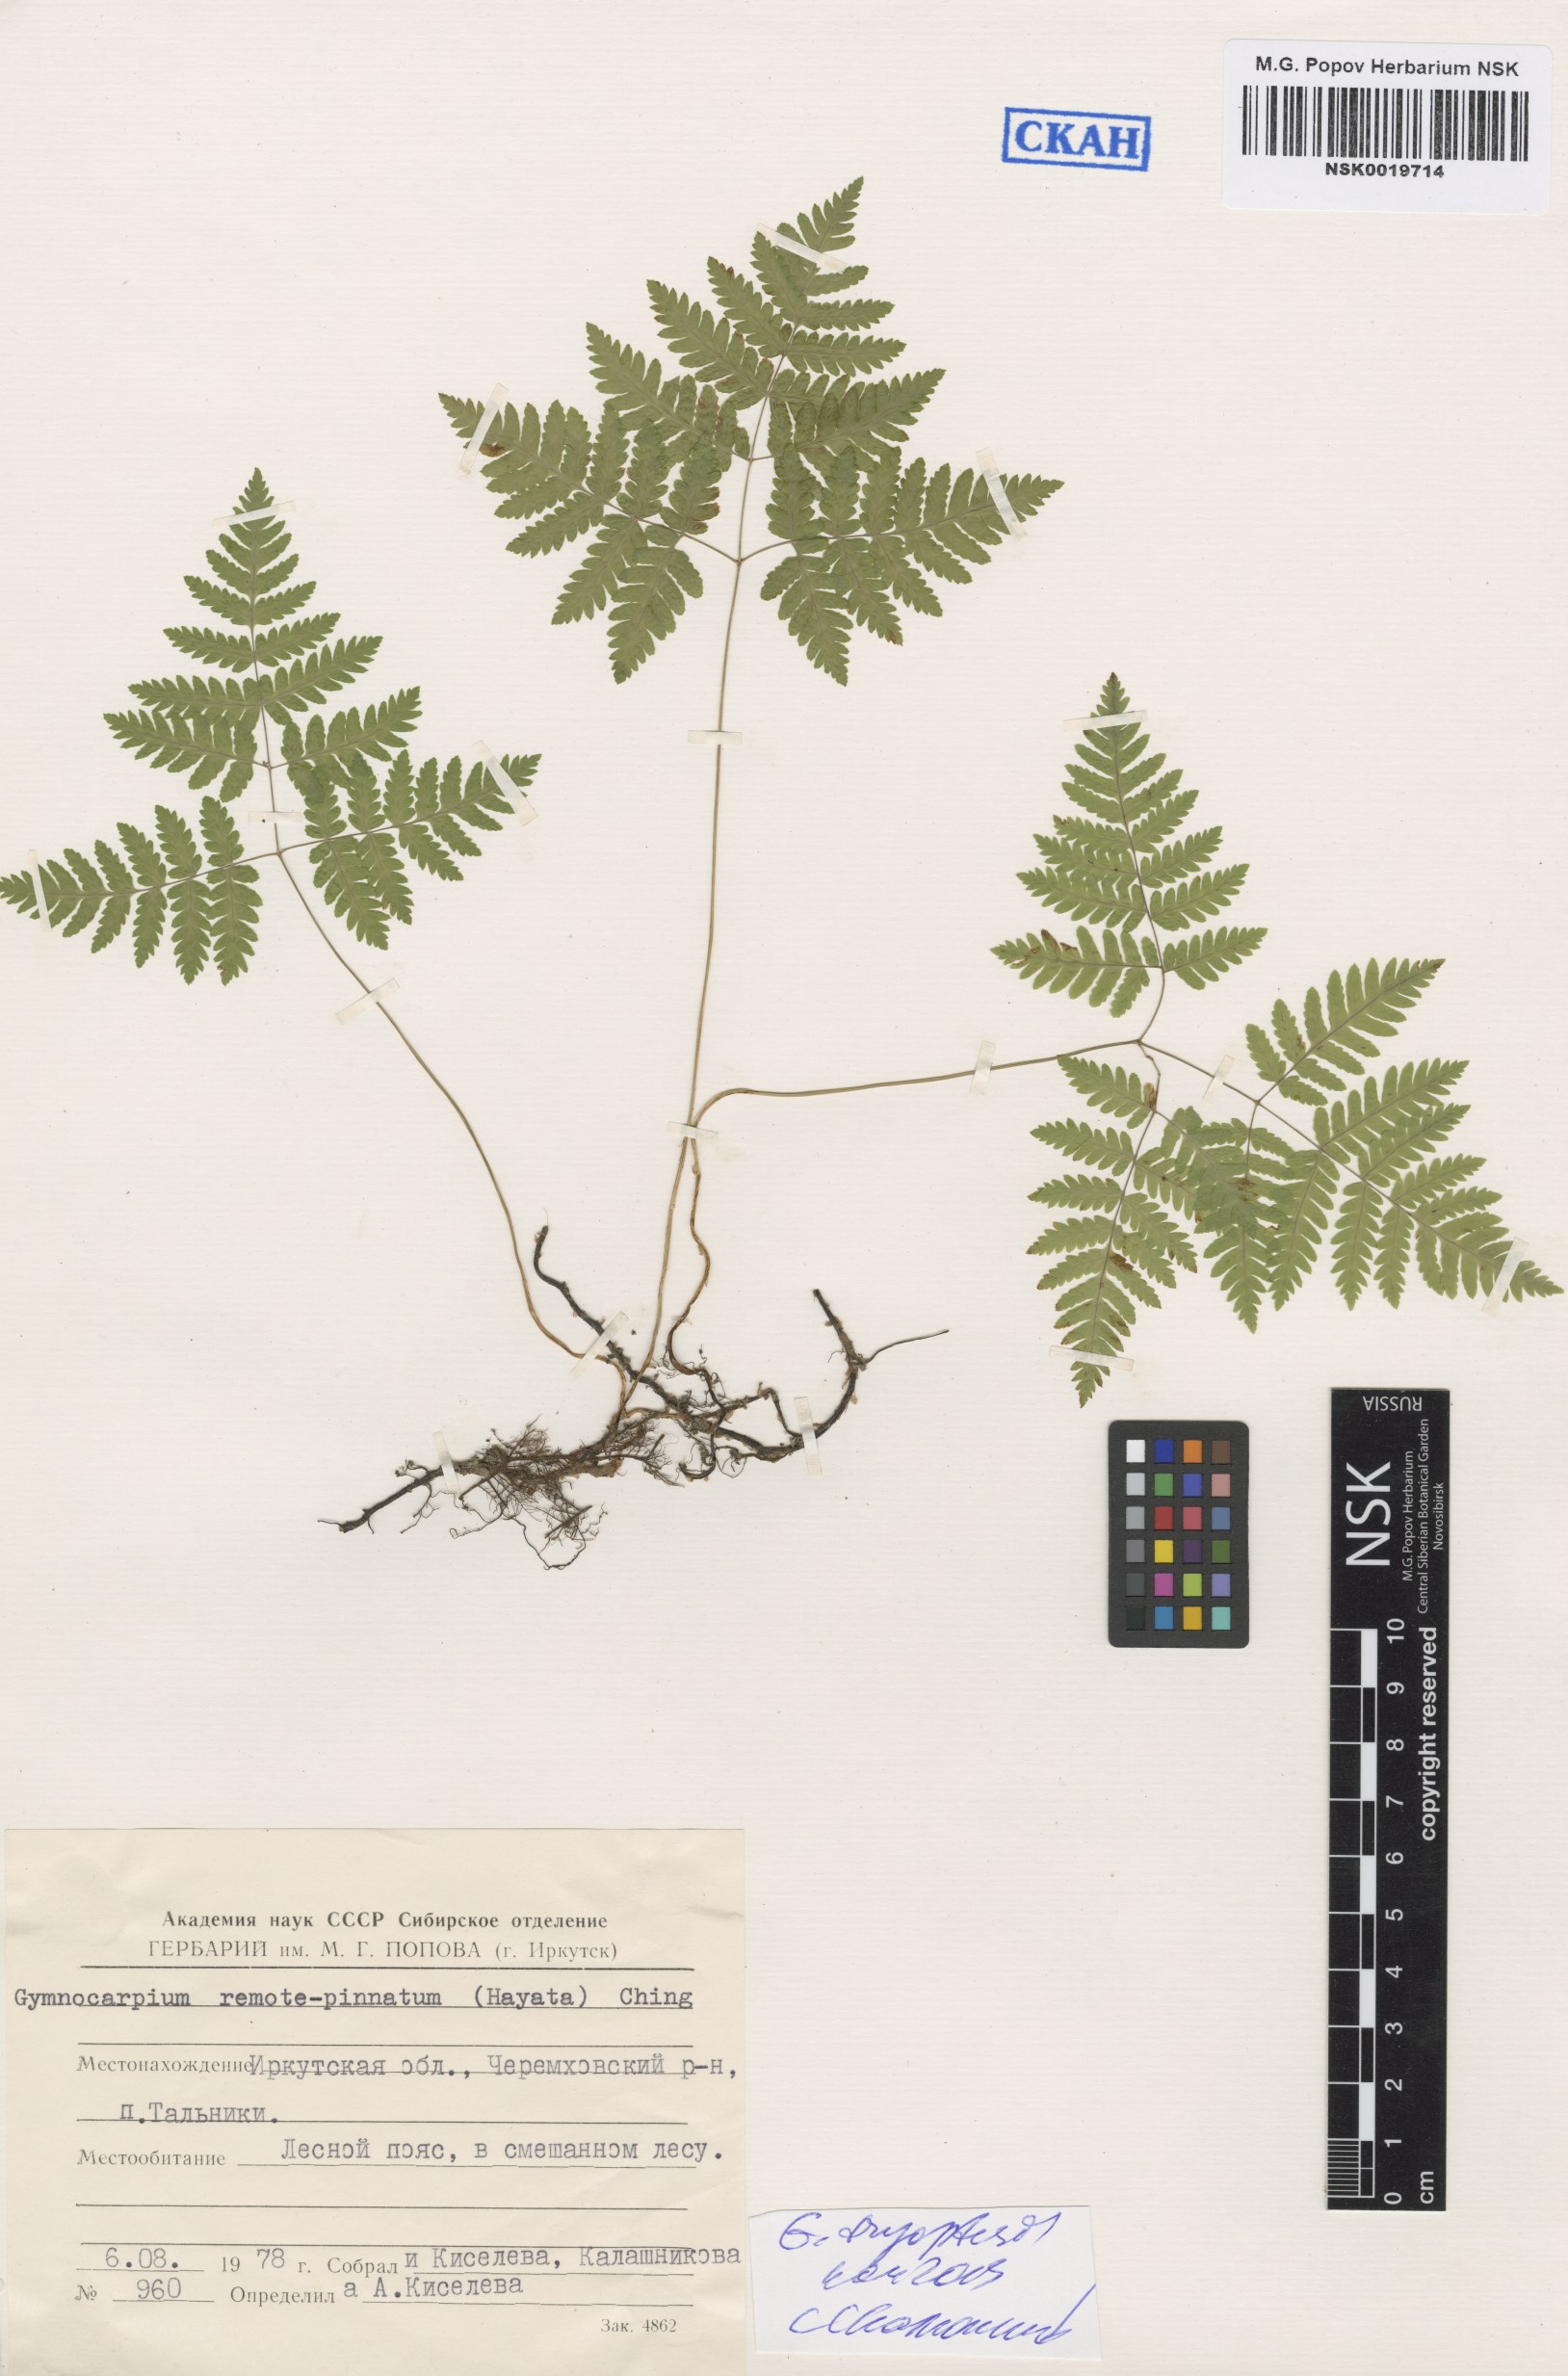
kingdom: Plantae
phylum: Tracheophyta
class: Polypodiopsida
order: Polypodiales
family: Cystopteridaceae
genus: Gymnocarpium
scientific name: Gymnocarpium dryopteris
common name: Oak fern
